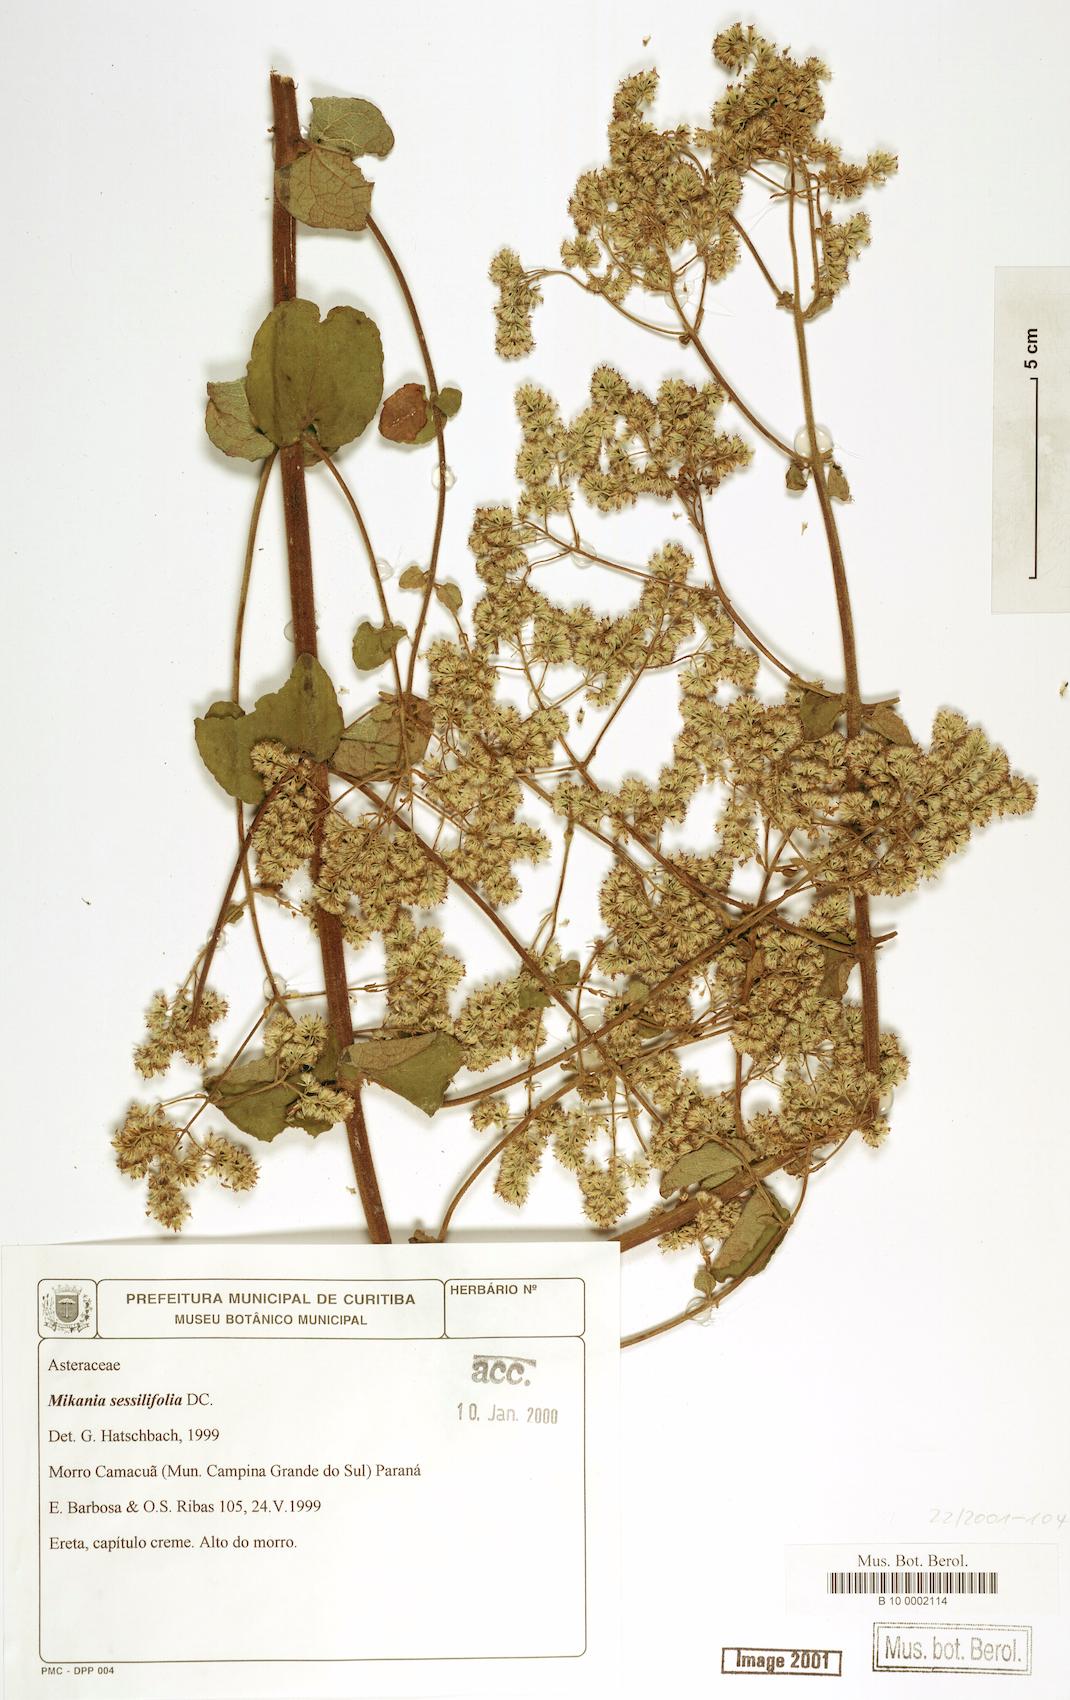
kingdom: Plantae
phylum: Tracheophyta
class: Magnoliopsida
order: Asterales
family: Asteraceae
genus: Mikania
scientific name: Mikania sessilifolia
